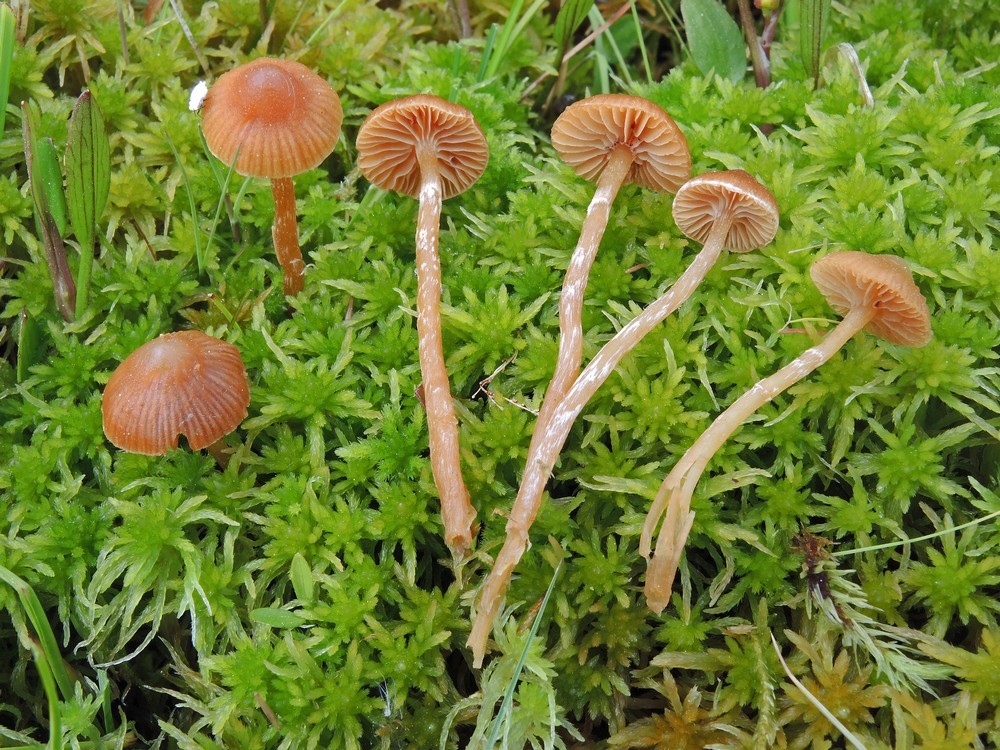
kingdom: Fungi
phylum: Basidiomycota
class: Agaricomycetes
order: Agaricales
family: Hymenogastraceae
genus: Galerina
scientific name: Galerina paludosa
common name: mose-hjelmhat
